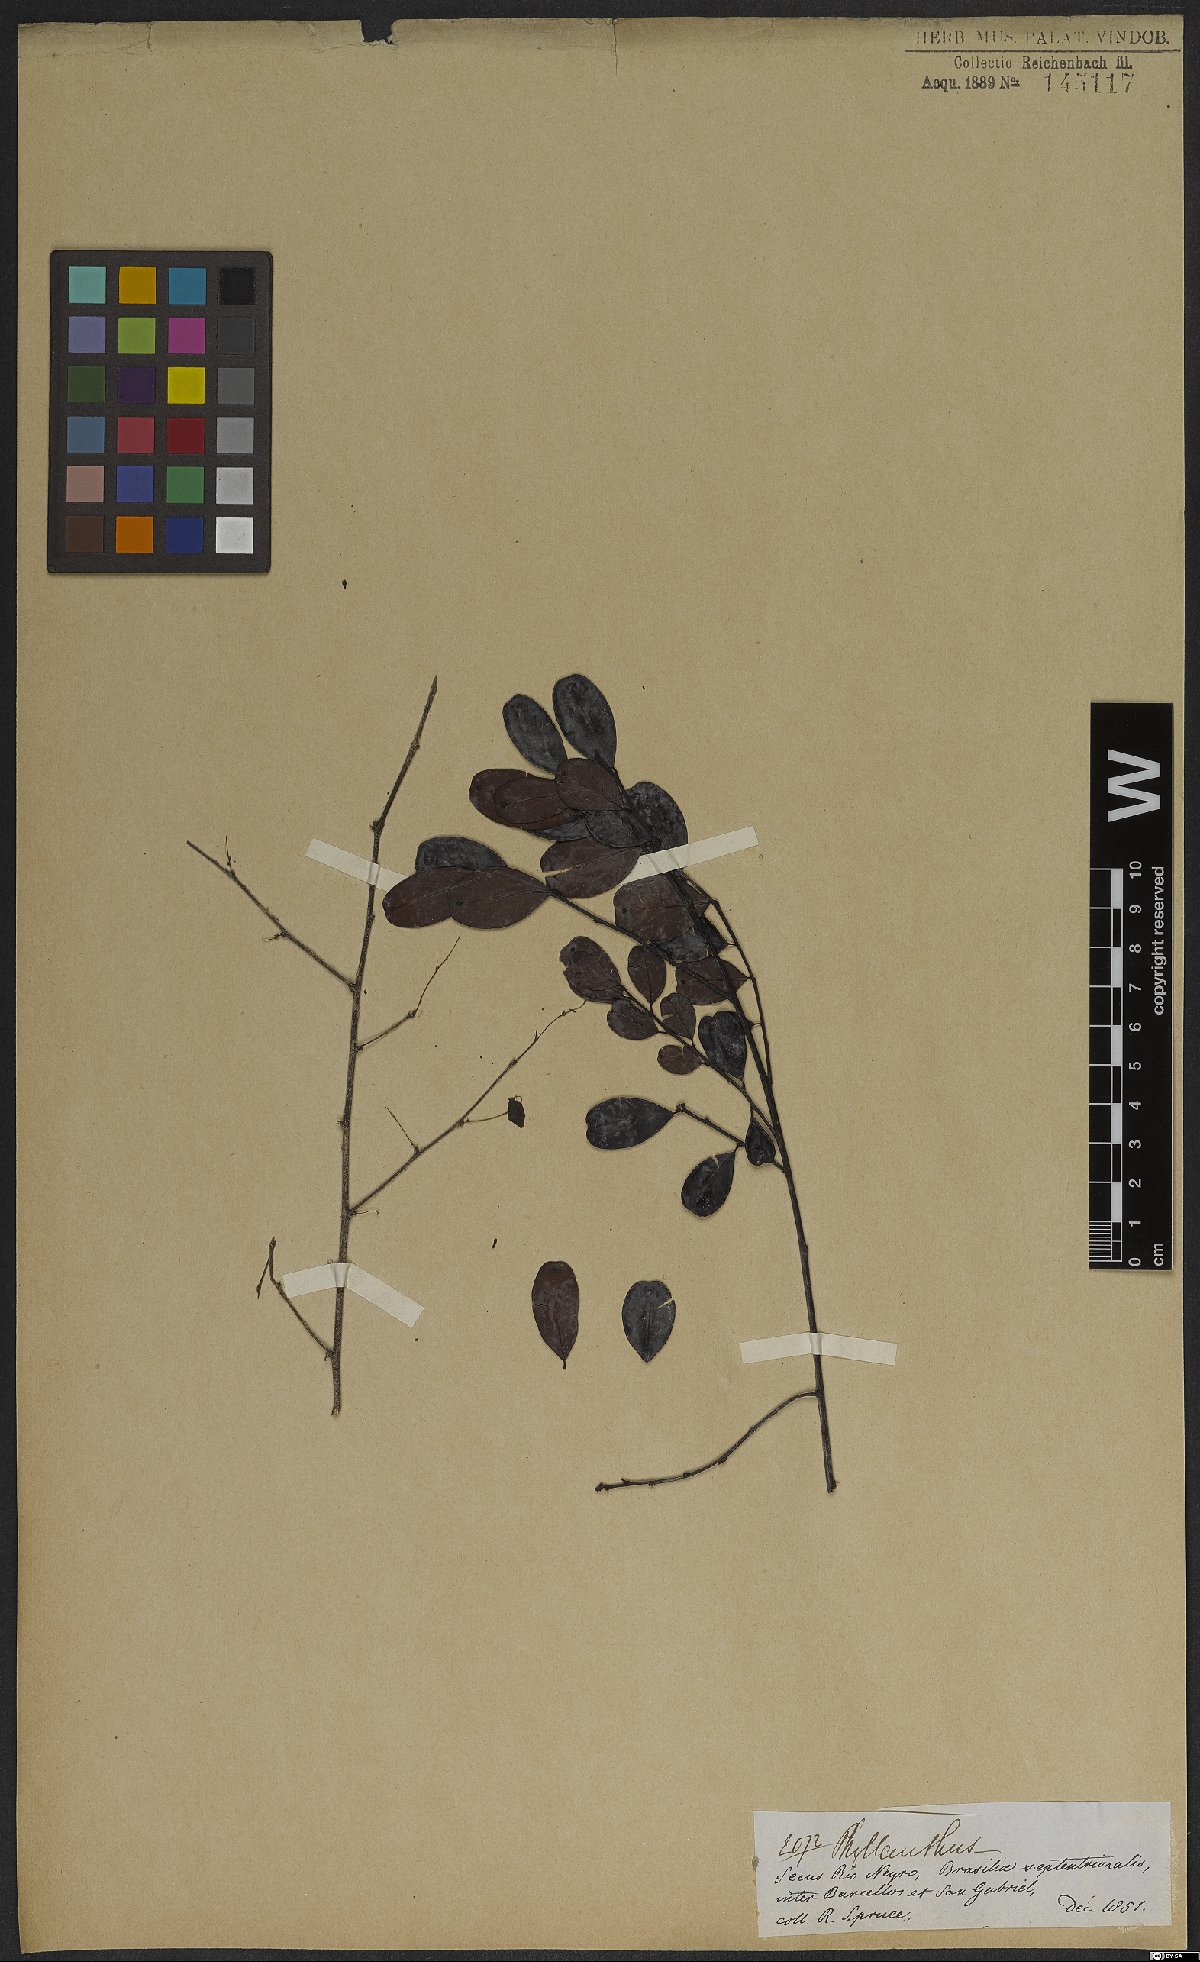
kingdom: Plantae
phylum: Tracheophyta
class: Magnoliopsida
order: Malpighiales
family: Phyllanthaceae
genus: Phyllanthus
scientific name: Phyllanthus myrsinites
